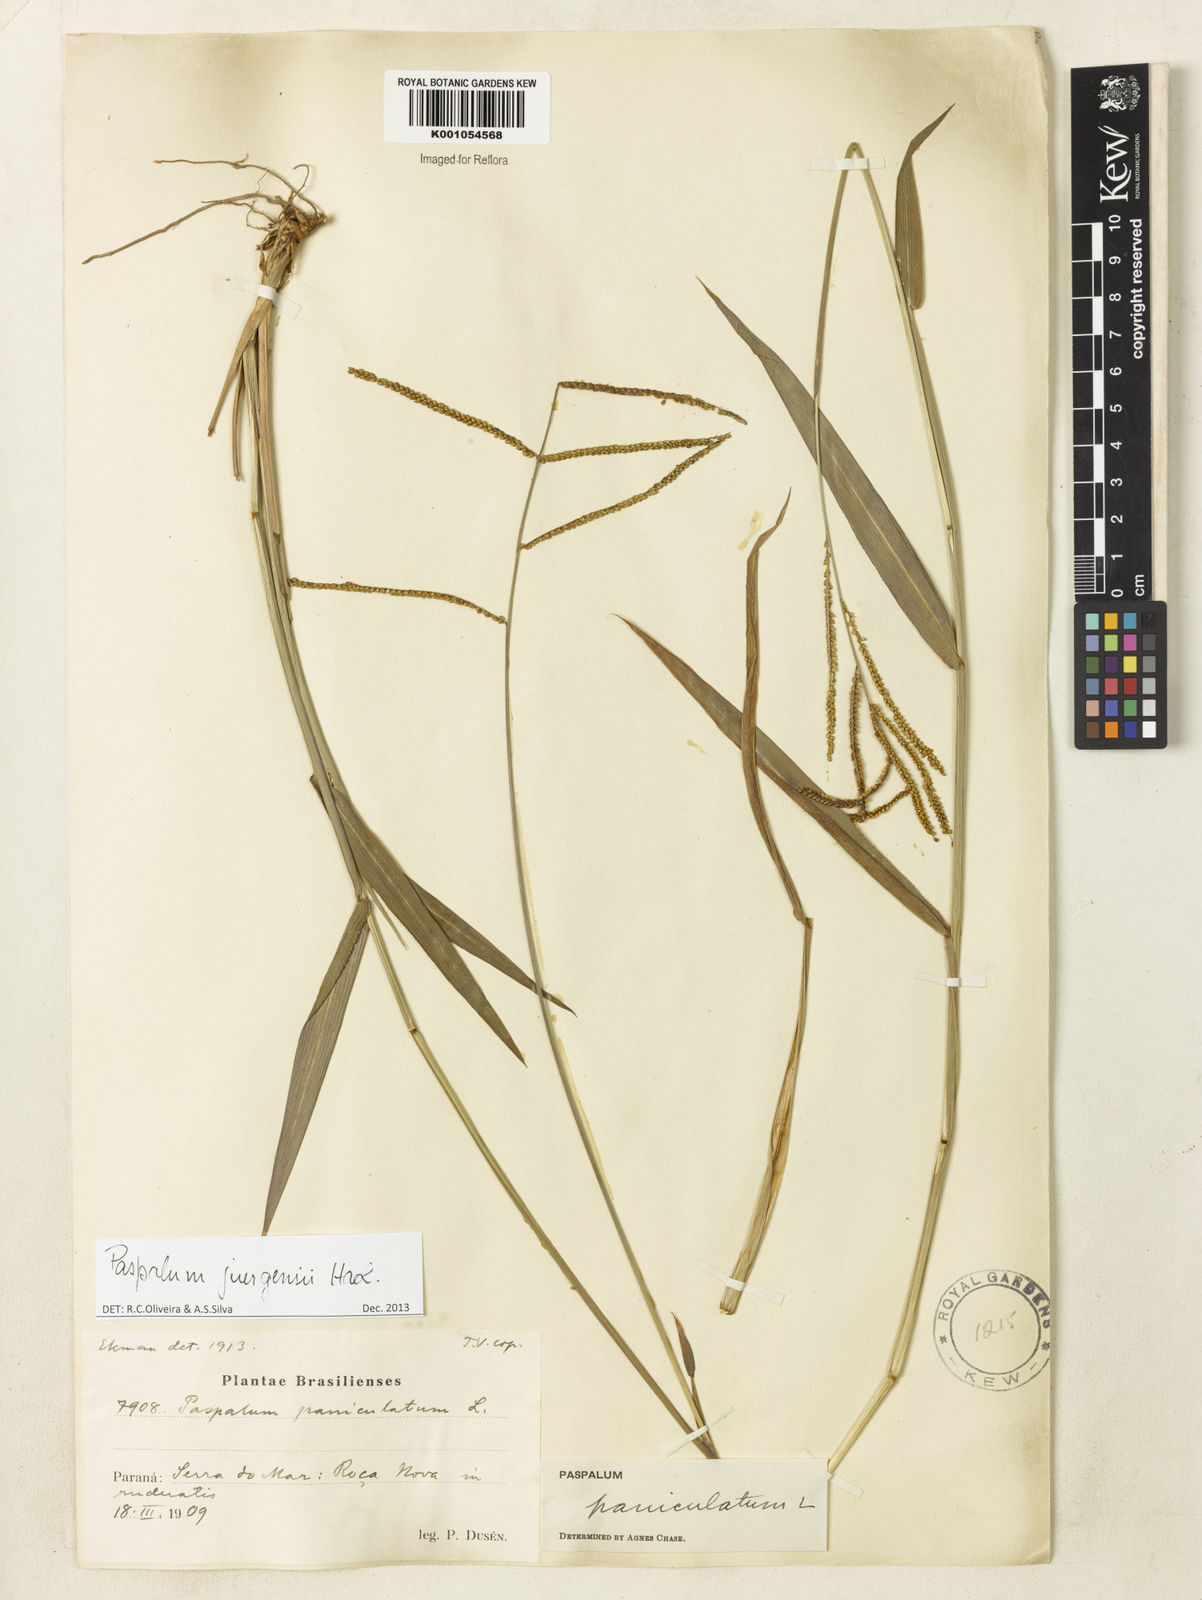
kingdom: Plantae
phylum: Tracheophyta
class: Liliopsida
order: Poales
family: Poaceae
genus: Paspalum
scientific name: Paspalum juergensii
